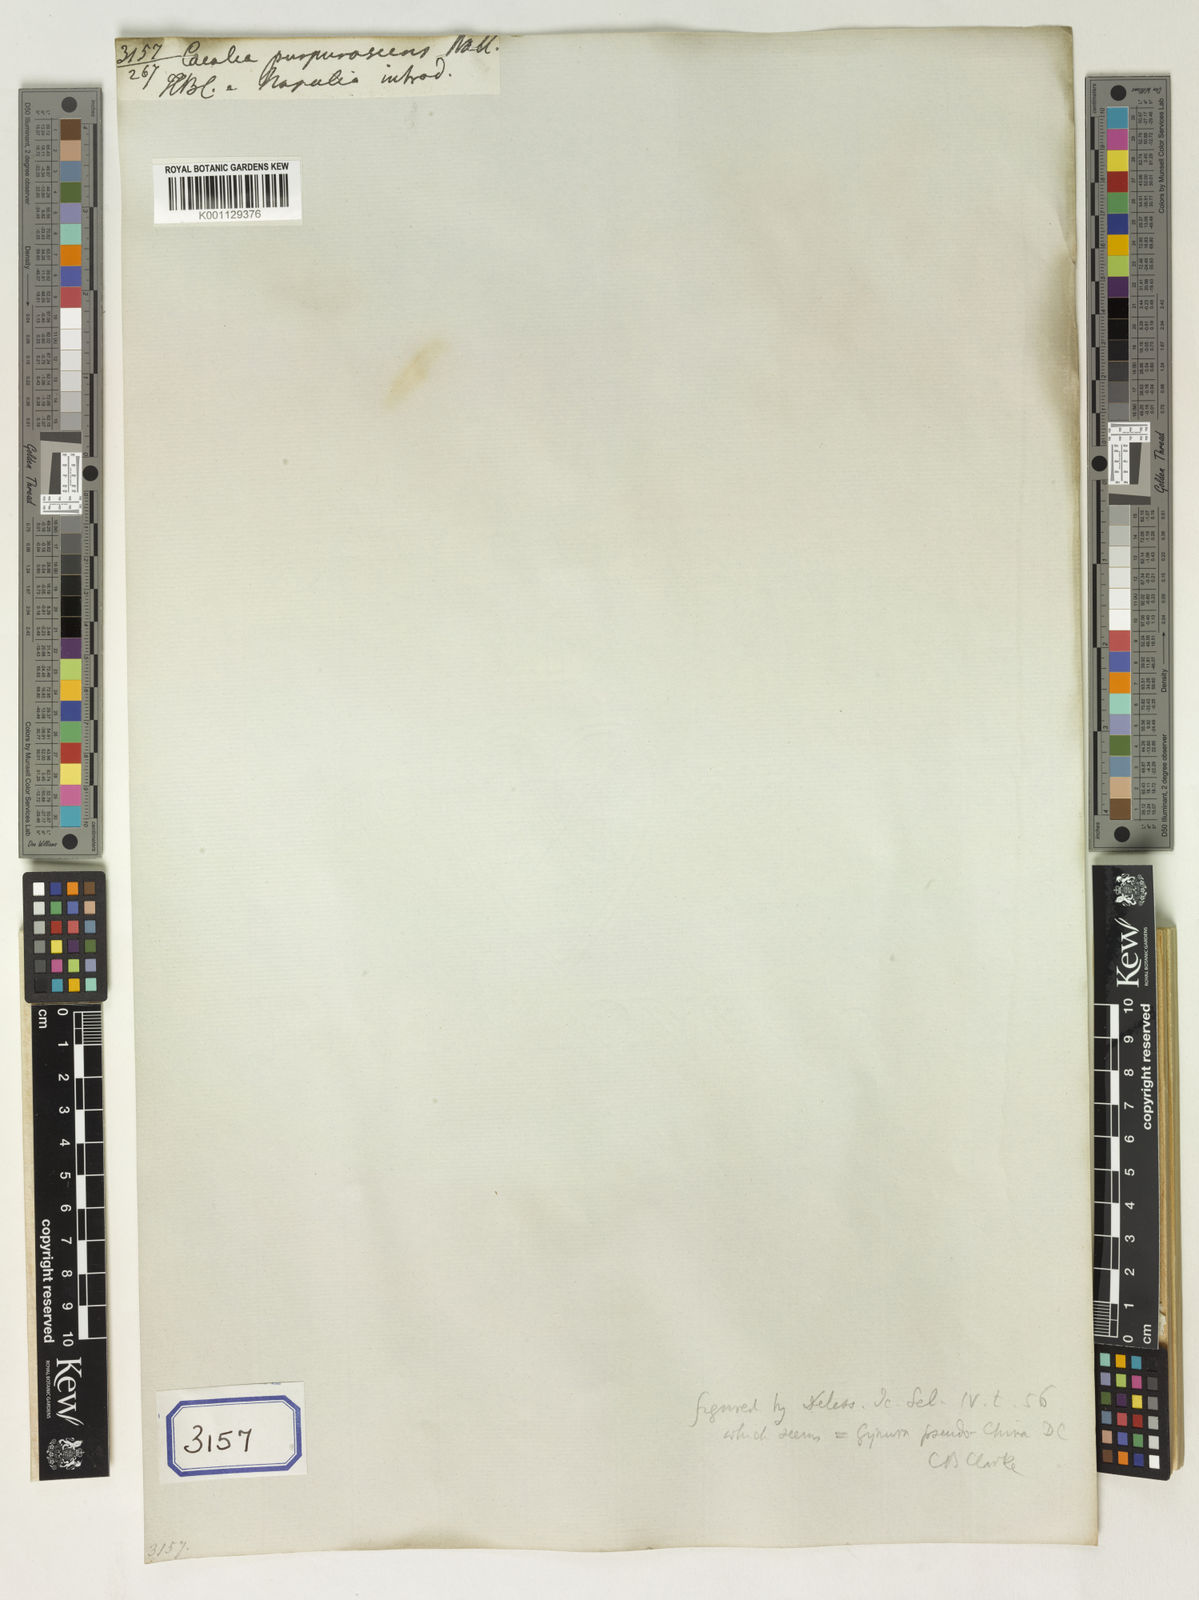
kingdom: Plantae
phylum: Tracheophyta
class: Magnoliopsida
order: Asterales
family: Asteraceae
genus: Gynura
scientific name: Gynura vidaliana
